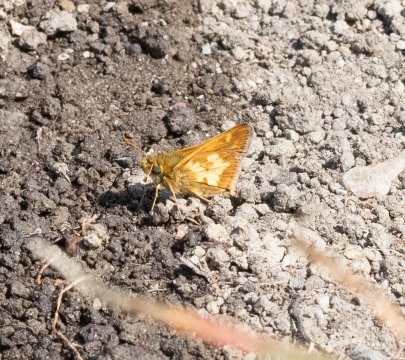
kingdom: Animalia
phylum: Arthropoda
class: Insecta
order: Lepidoptera
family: Hesperiidae
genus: Polites
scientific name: Polites coras
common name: Peck's Skipper
